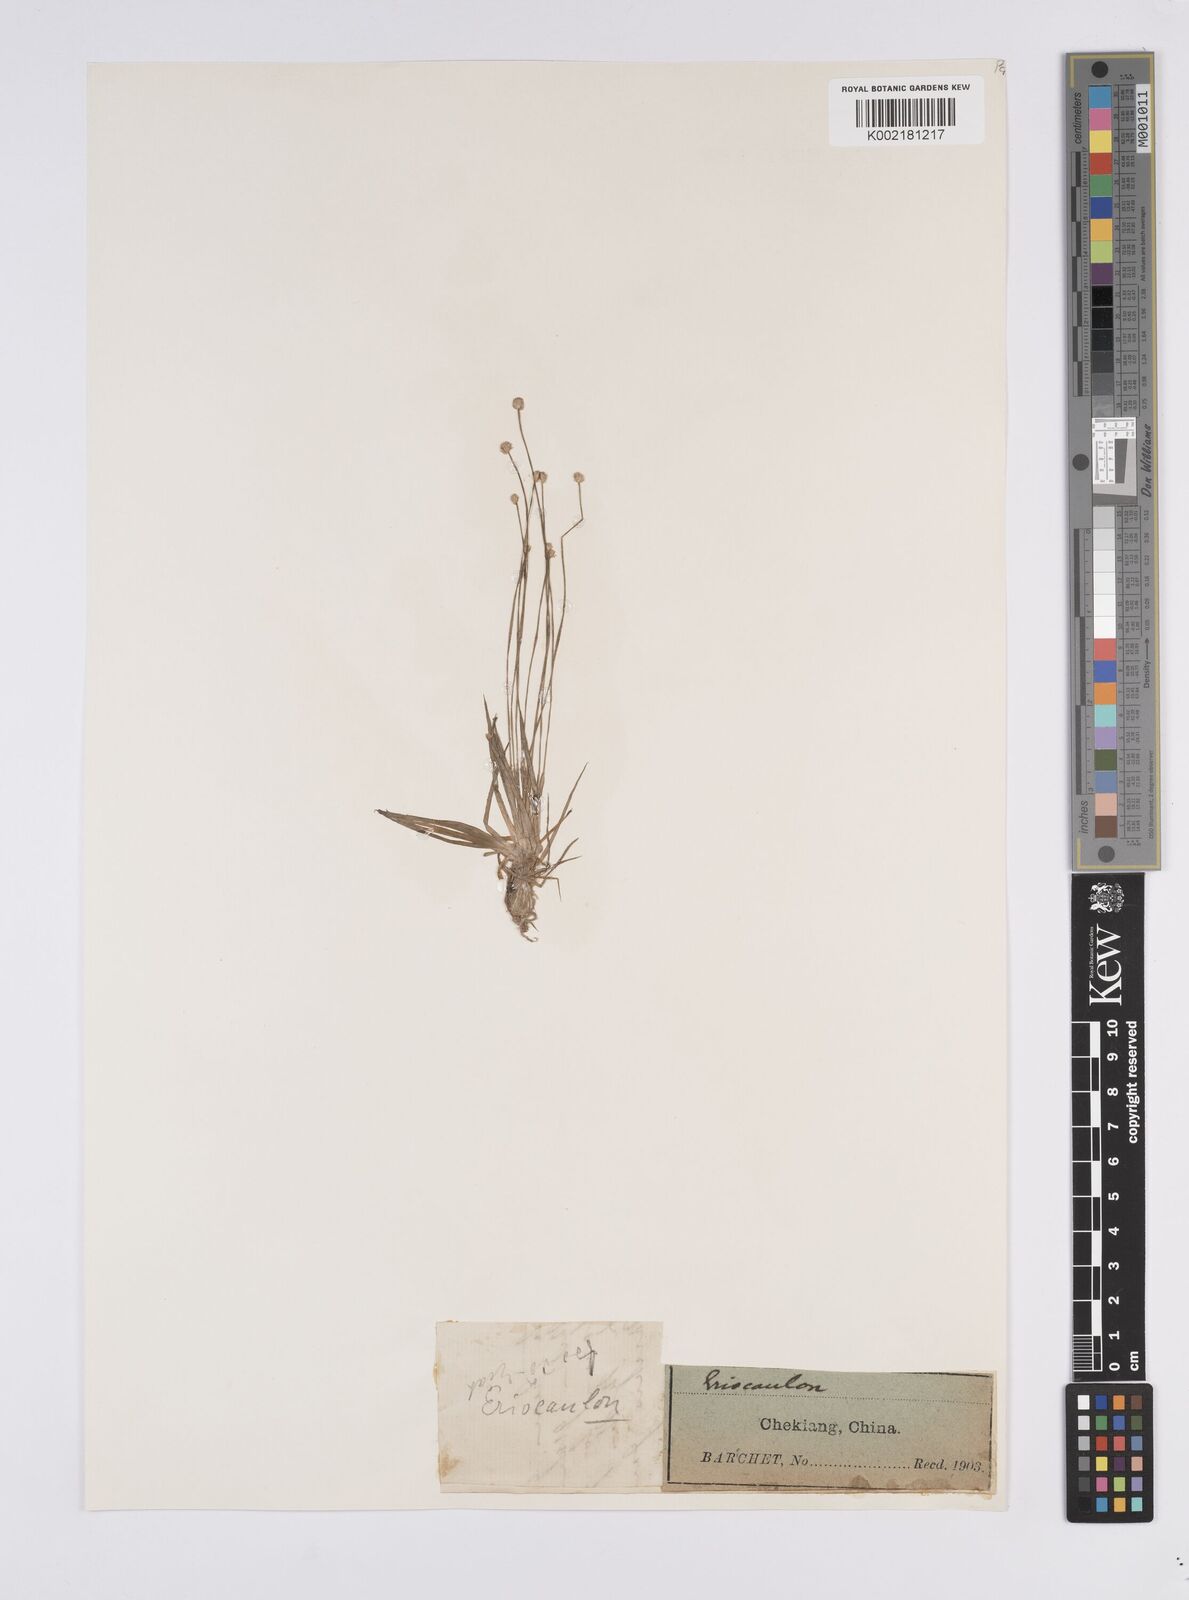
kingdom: Plantae
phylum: Tracheophyta
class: Liliopsida
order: Poales
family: Eriocaulaceae
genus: Eriocaulon
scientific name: Eriocaulon
